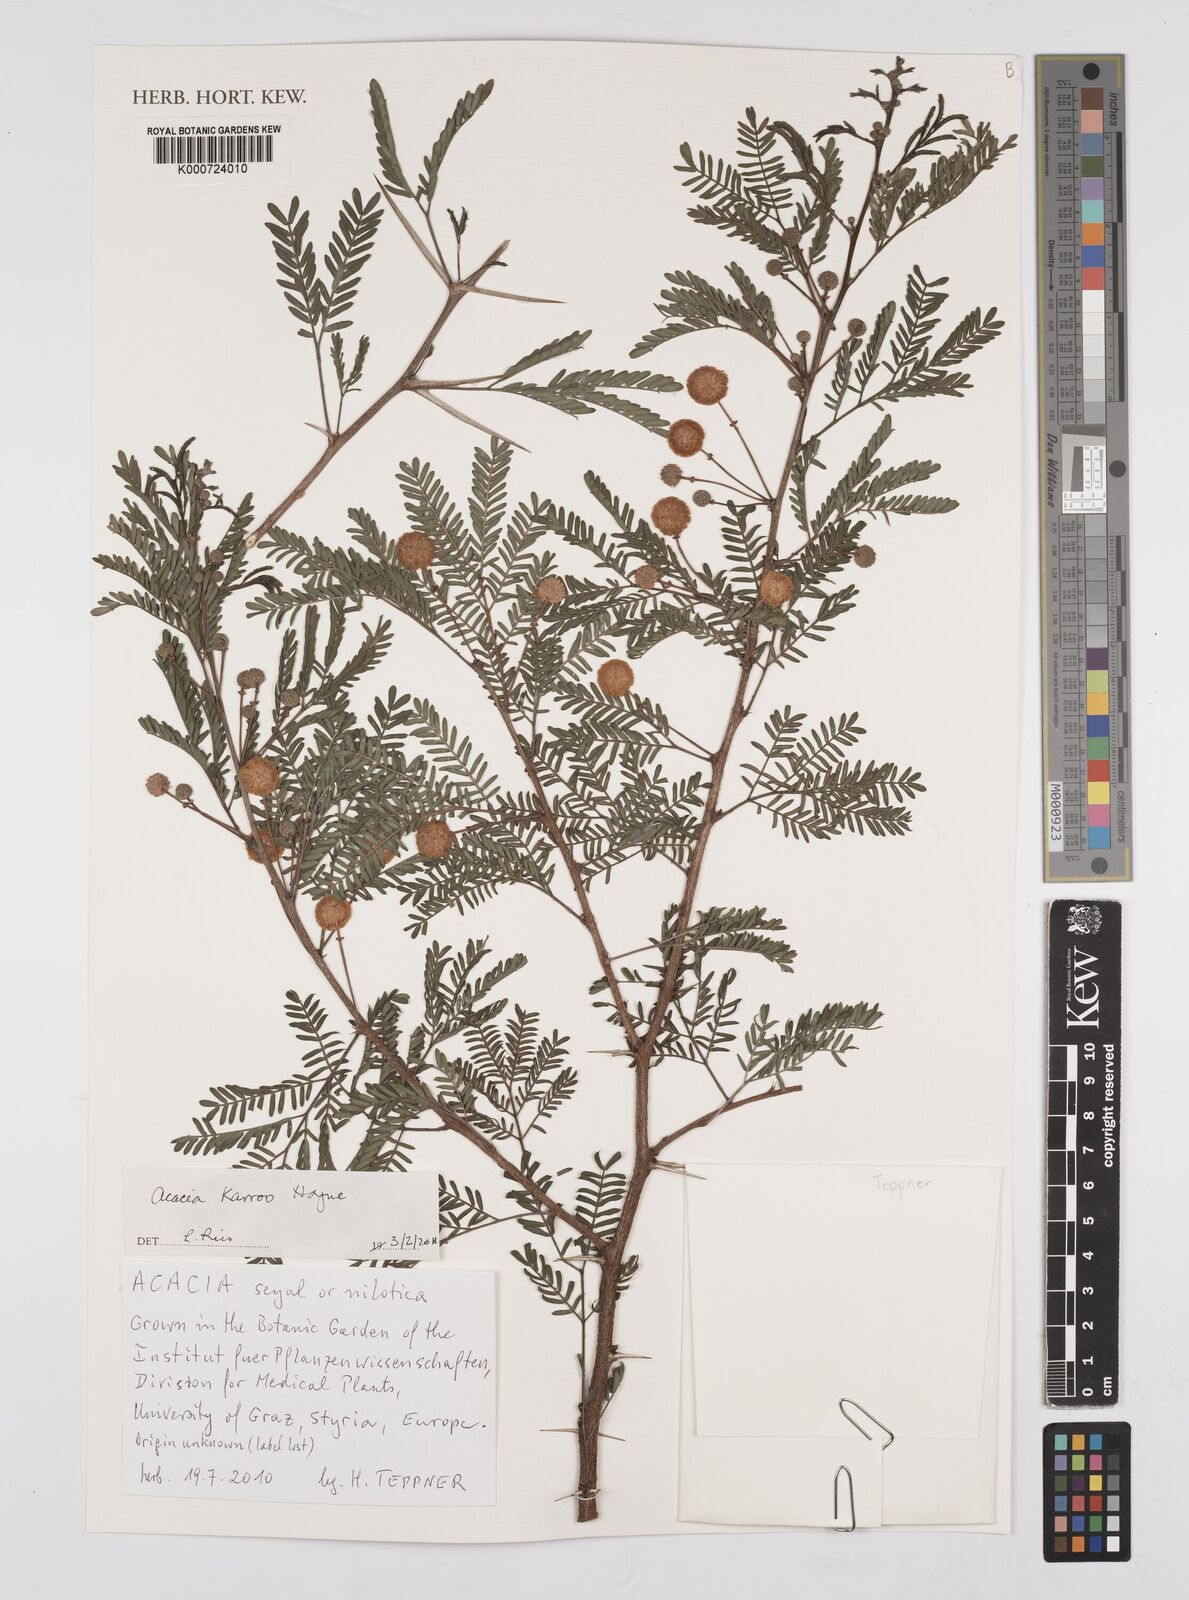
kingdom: Plantae
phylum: Tracheophyta
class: Magnoliopsida
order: Fabales
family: Fabaceae
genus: Vachellia
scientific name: Vachellia karroo
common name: Sweet thorn
